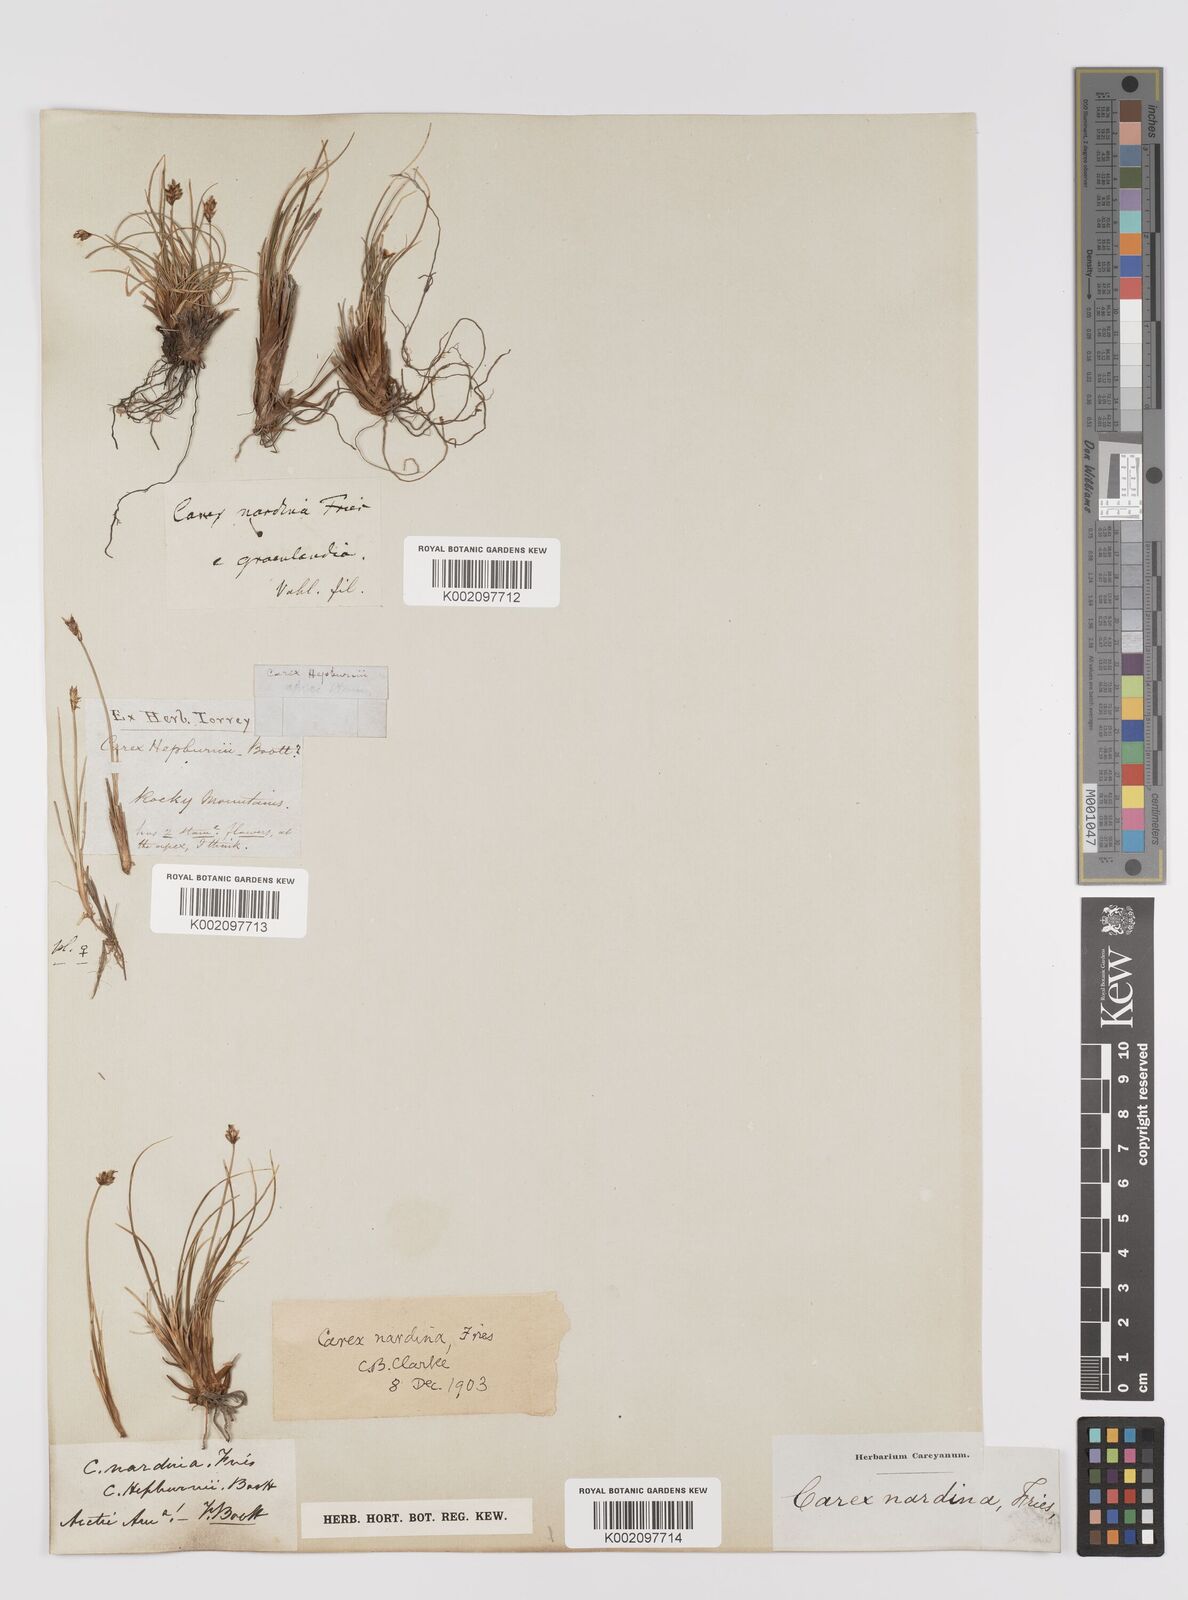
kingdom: Plantae
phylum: Tracheophyta
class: Liliopsida
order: Poales
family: Cyperaceae
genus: Carex
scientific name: Carex nardina
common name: Nard sedge
